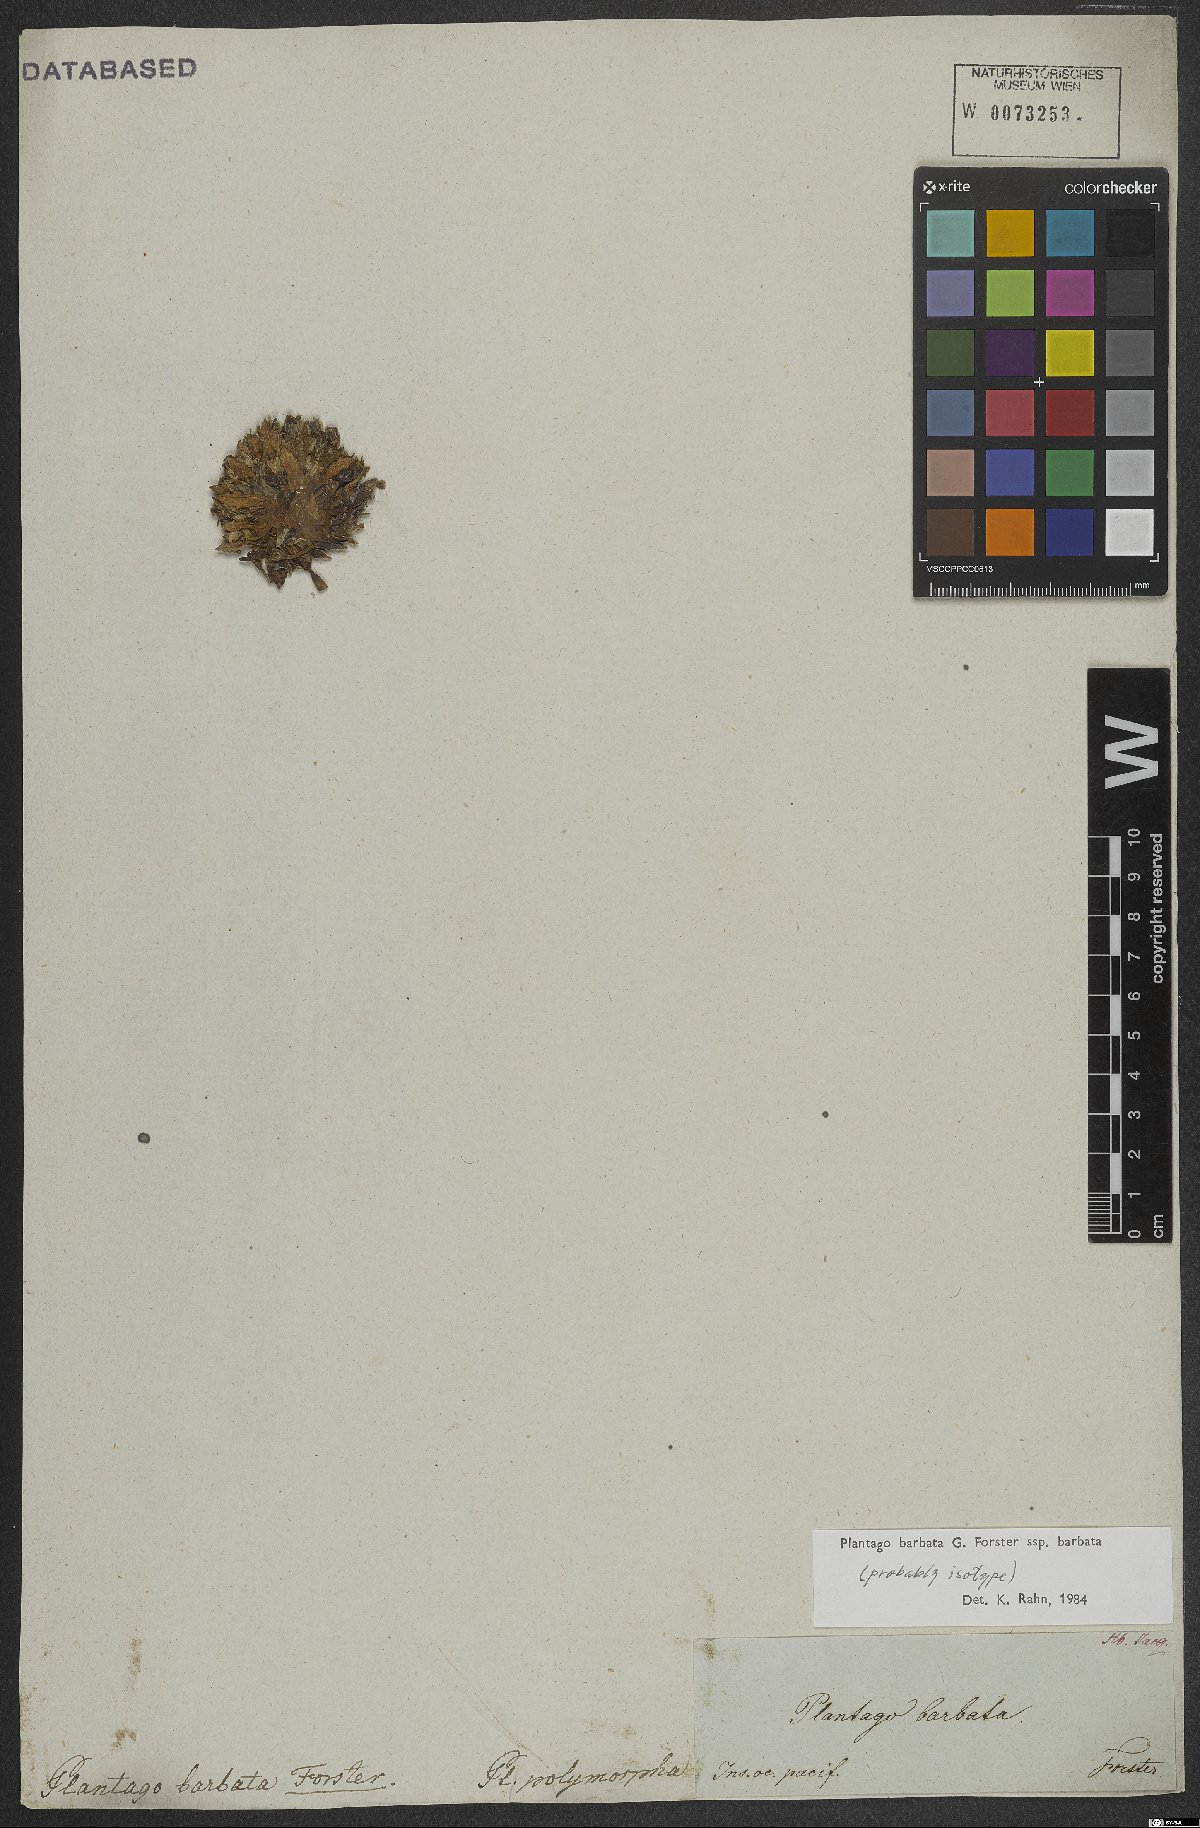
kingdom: Plantae
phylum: Tracheophyta
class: Magnoliopsida
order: Lamiales
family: Plantaginaceae
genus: Plantago
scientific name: Plantago barbata
